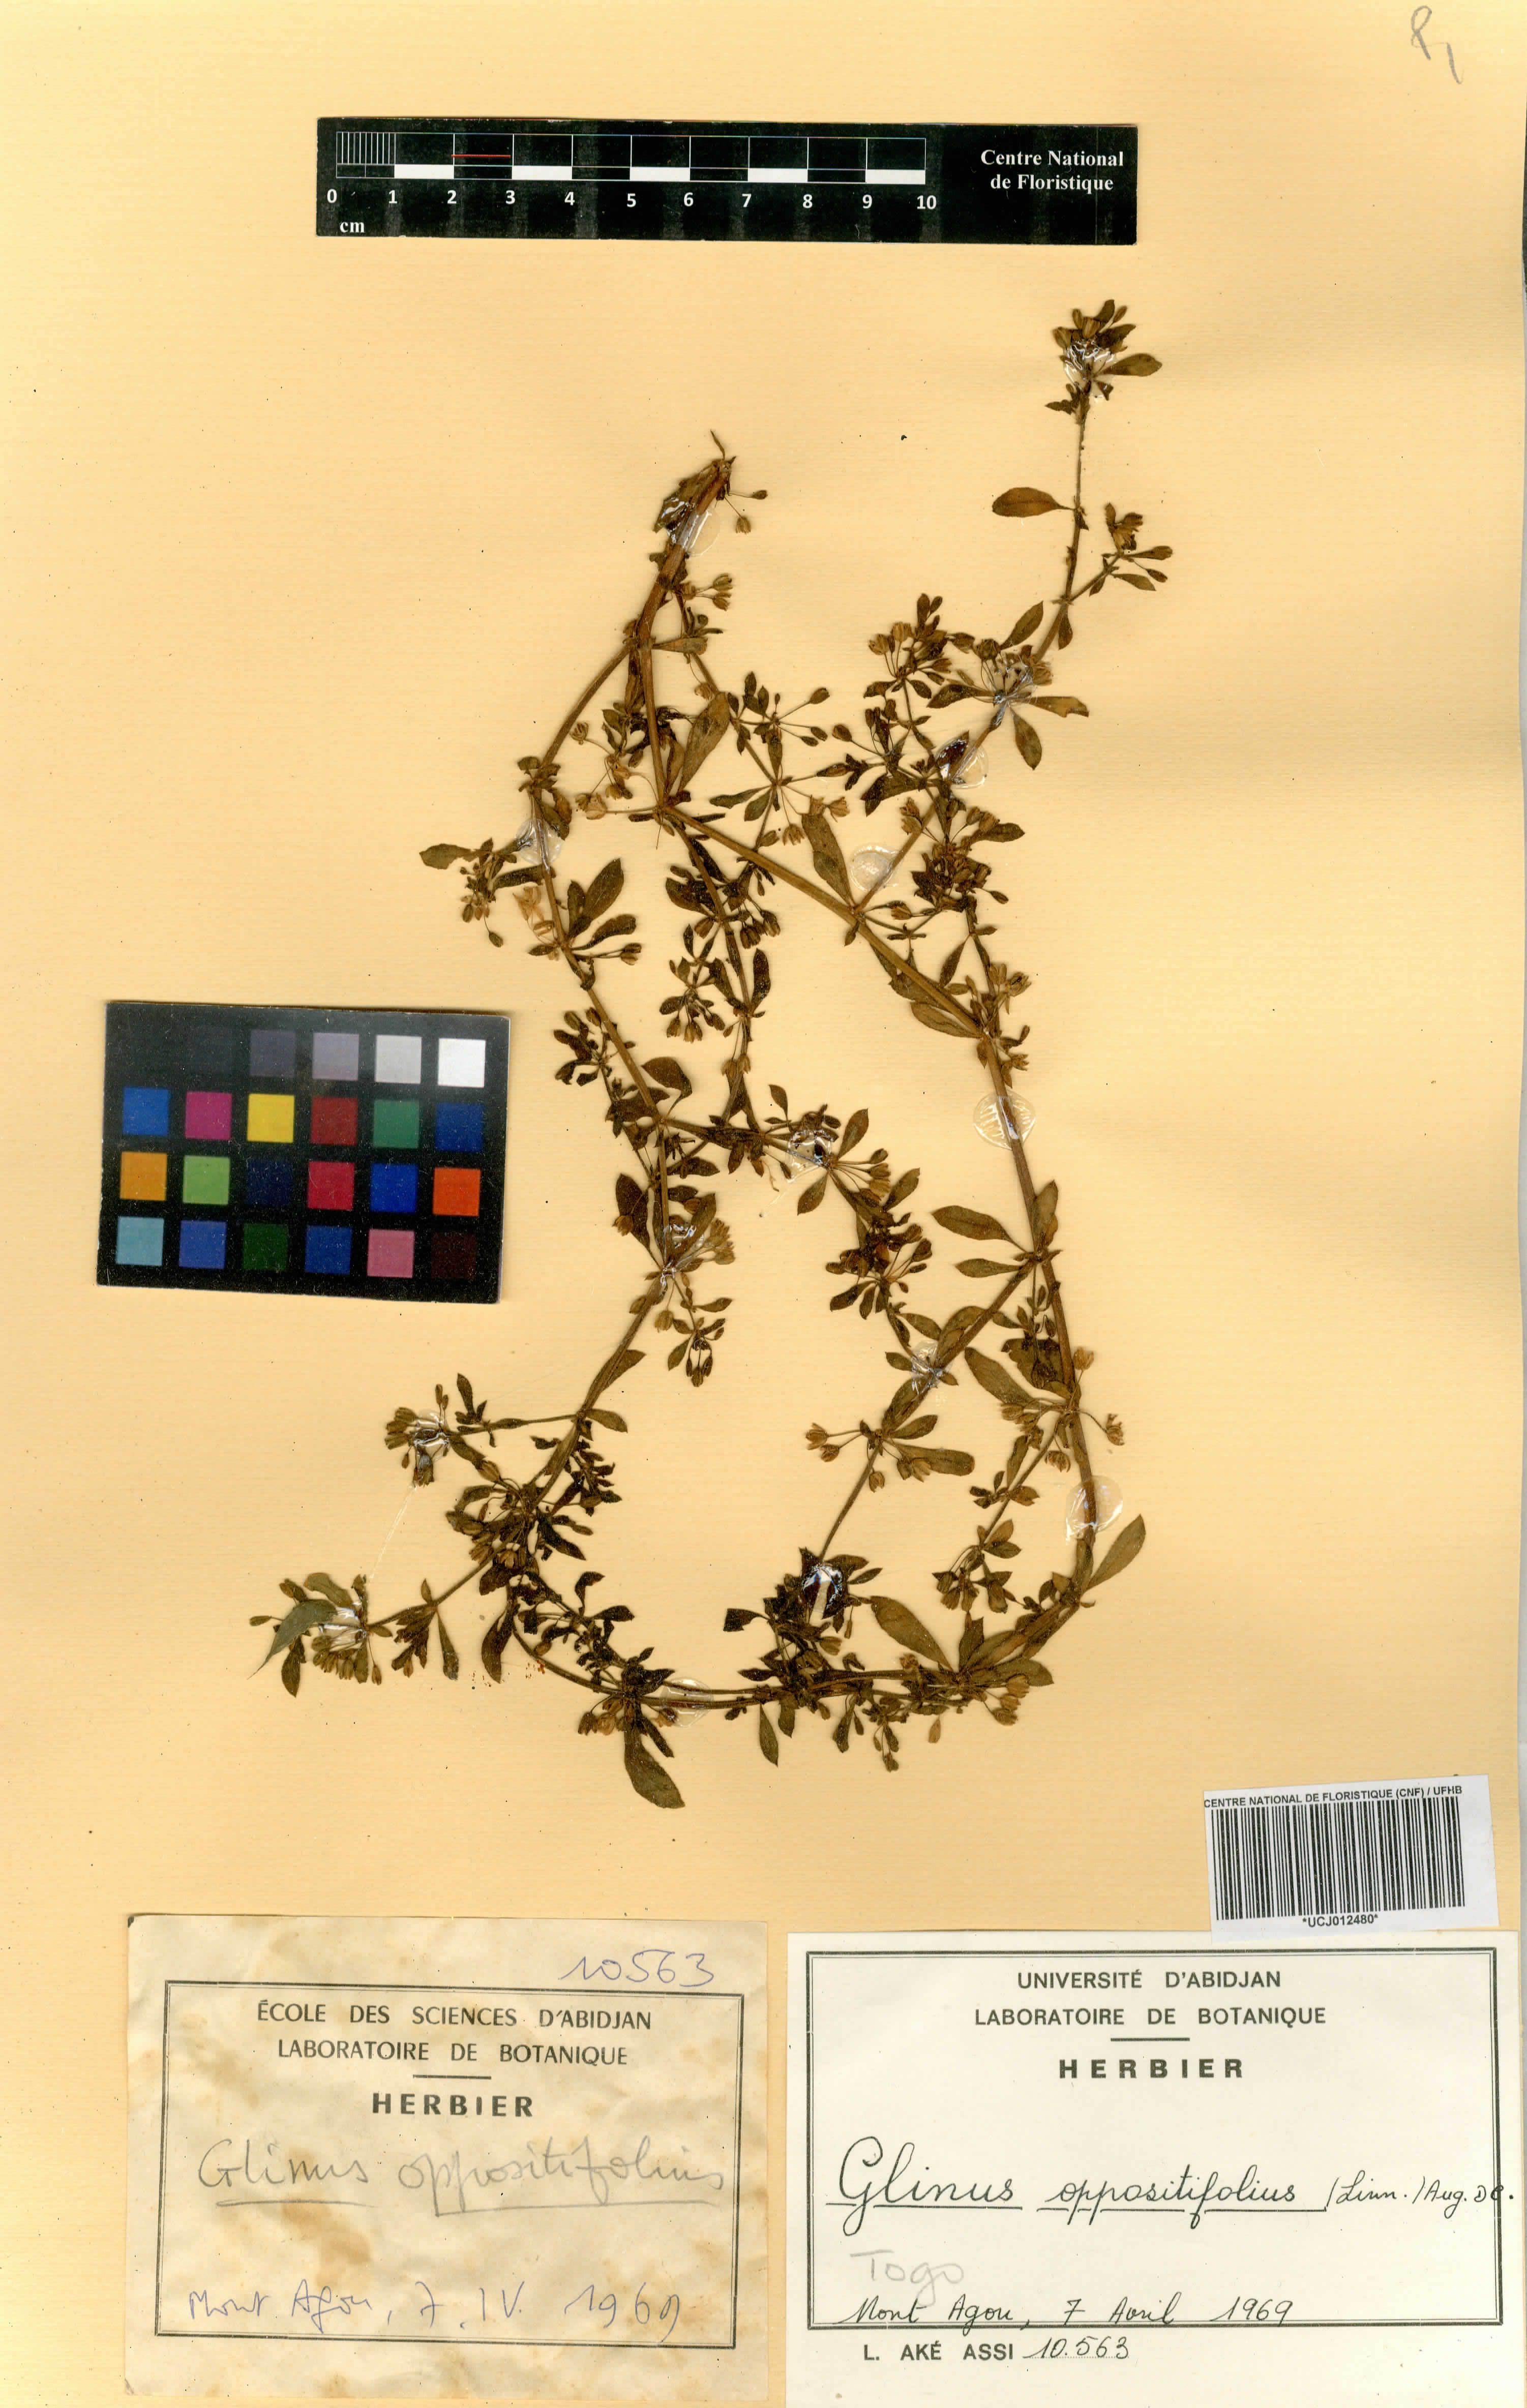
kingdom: Plantae
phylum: Tracheophyta
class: Magnoliopsida
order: Caryophyllales
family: Molluginaceae
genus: Glinus
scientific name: Glinus oppositifolius
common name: Slender carpetweed
